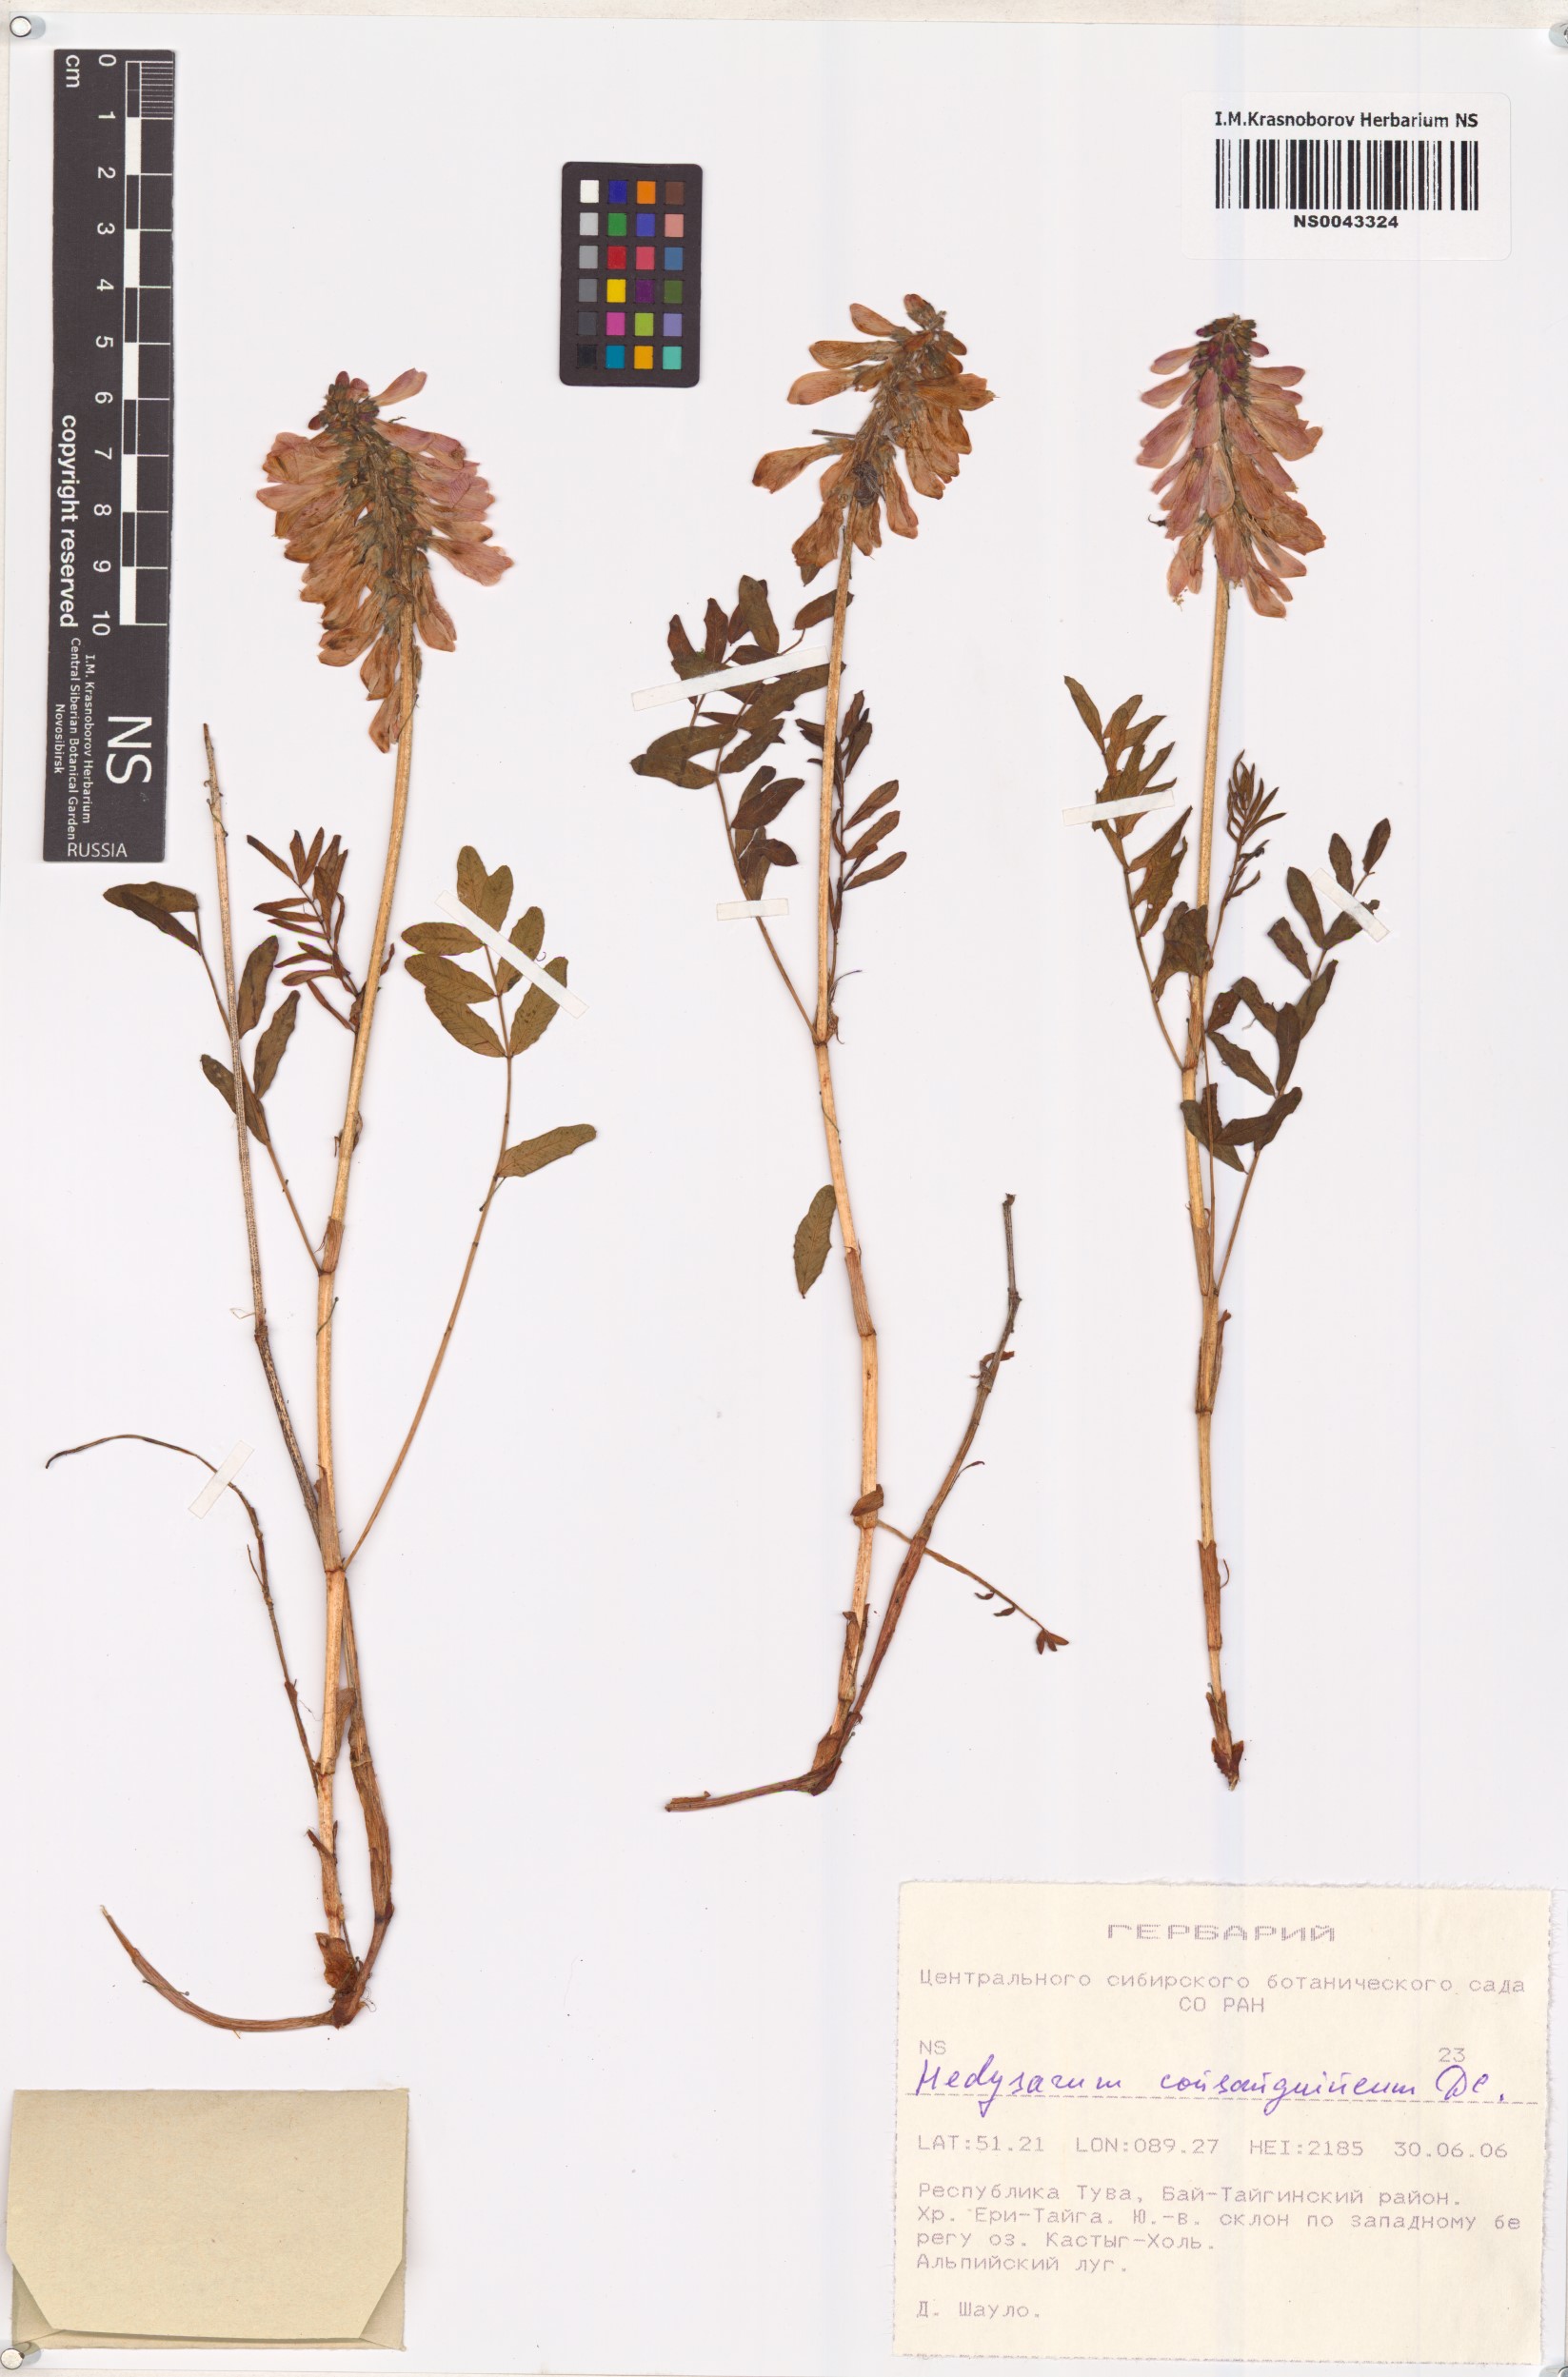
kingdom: Plantae
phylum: Tracheophyta
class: Magnoliopsida
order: Fabales
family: Fabaceae
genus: Hedysarum
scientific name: Hedysarum consanguineum
